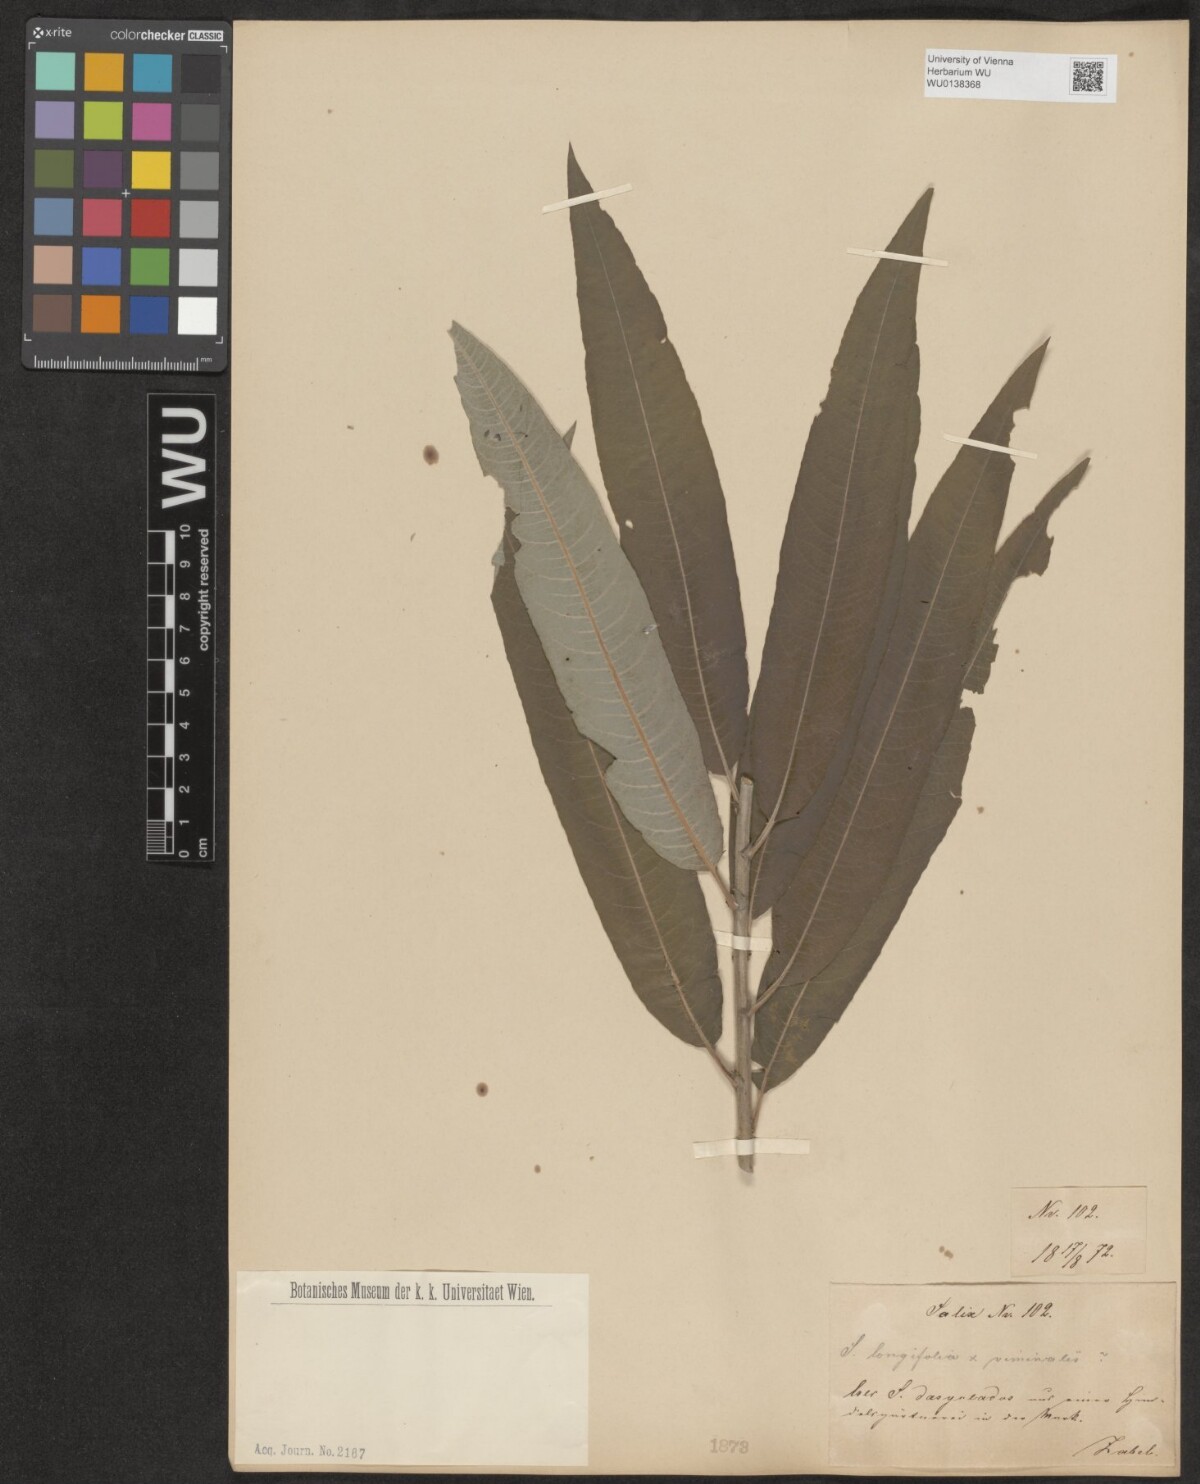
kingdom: Plantae
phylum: Tracheophyta
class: Magnoliopsida
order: Malpighiales
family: Salicaceae
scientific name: Salicaceae
